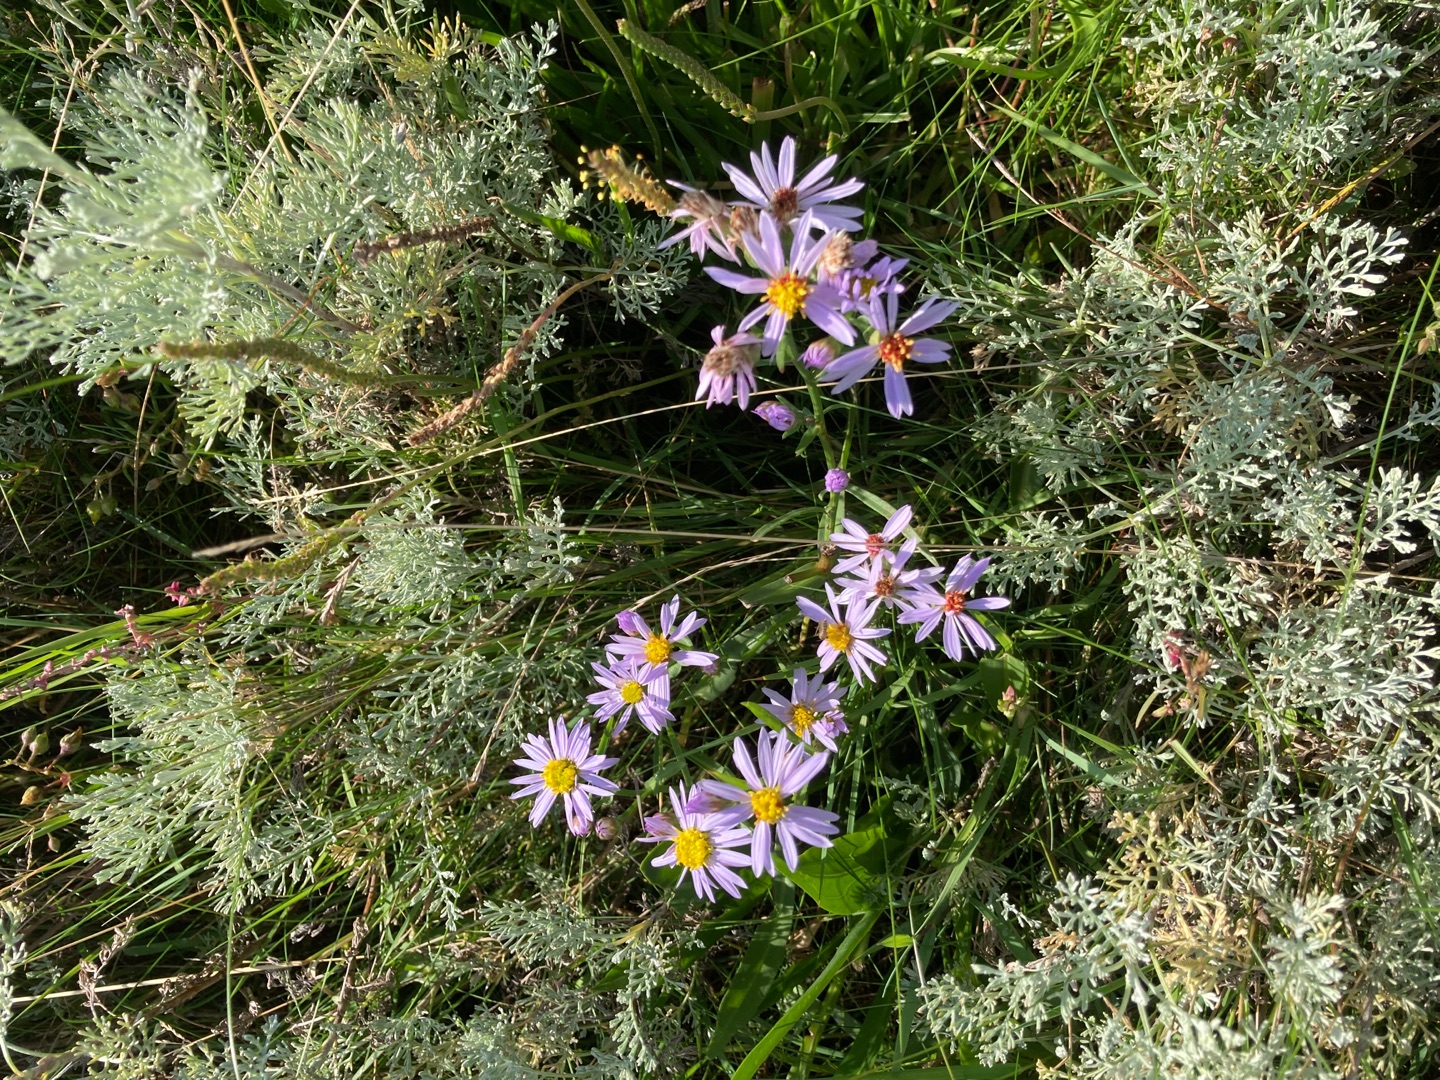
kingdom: Plantae
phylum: Tracheophyta
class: Magnoliopsida
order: Asterales
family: Asteraceae
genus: Tripolium
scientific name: Tripolium pannonicum
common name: Strandasters
